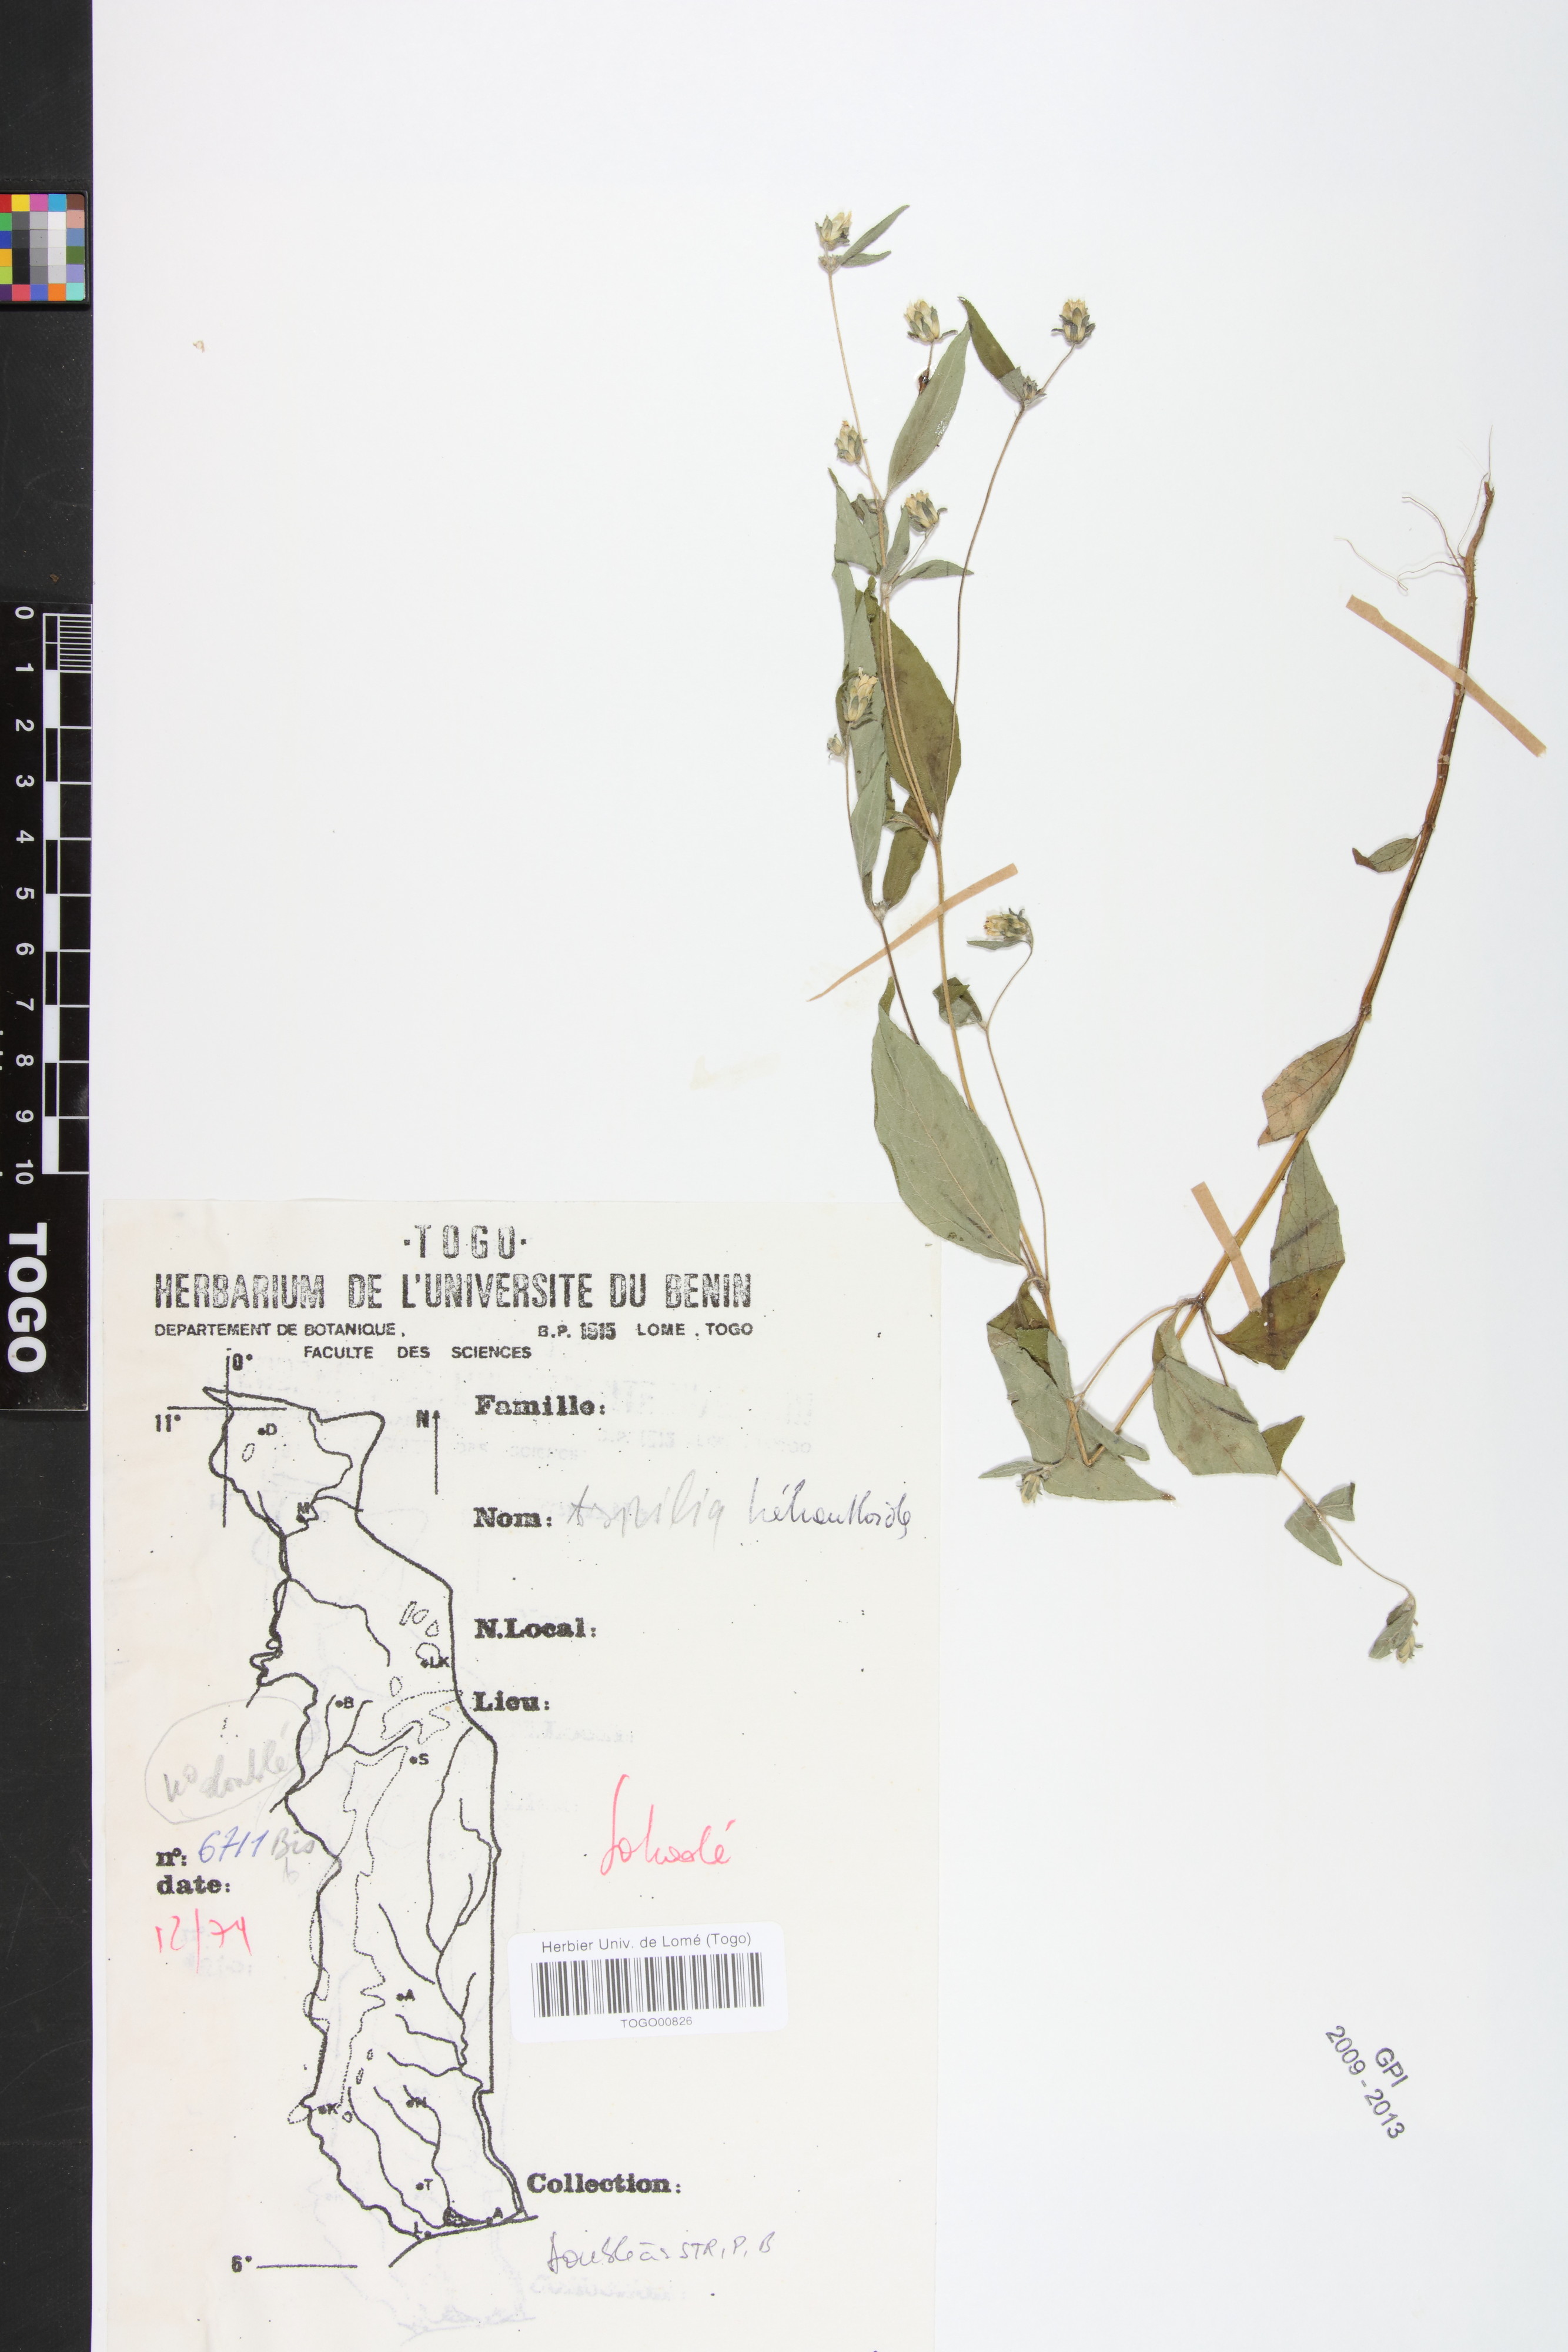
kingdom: Plantae
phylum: Tracheophyta
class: Magnoliopsida
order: Asterales
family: Asteraceae
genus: Aspilia
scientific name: Aspilia helianthoides
